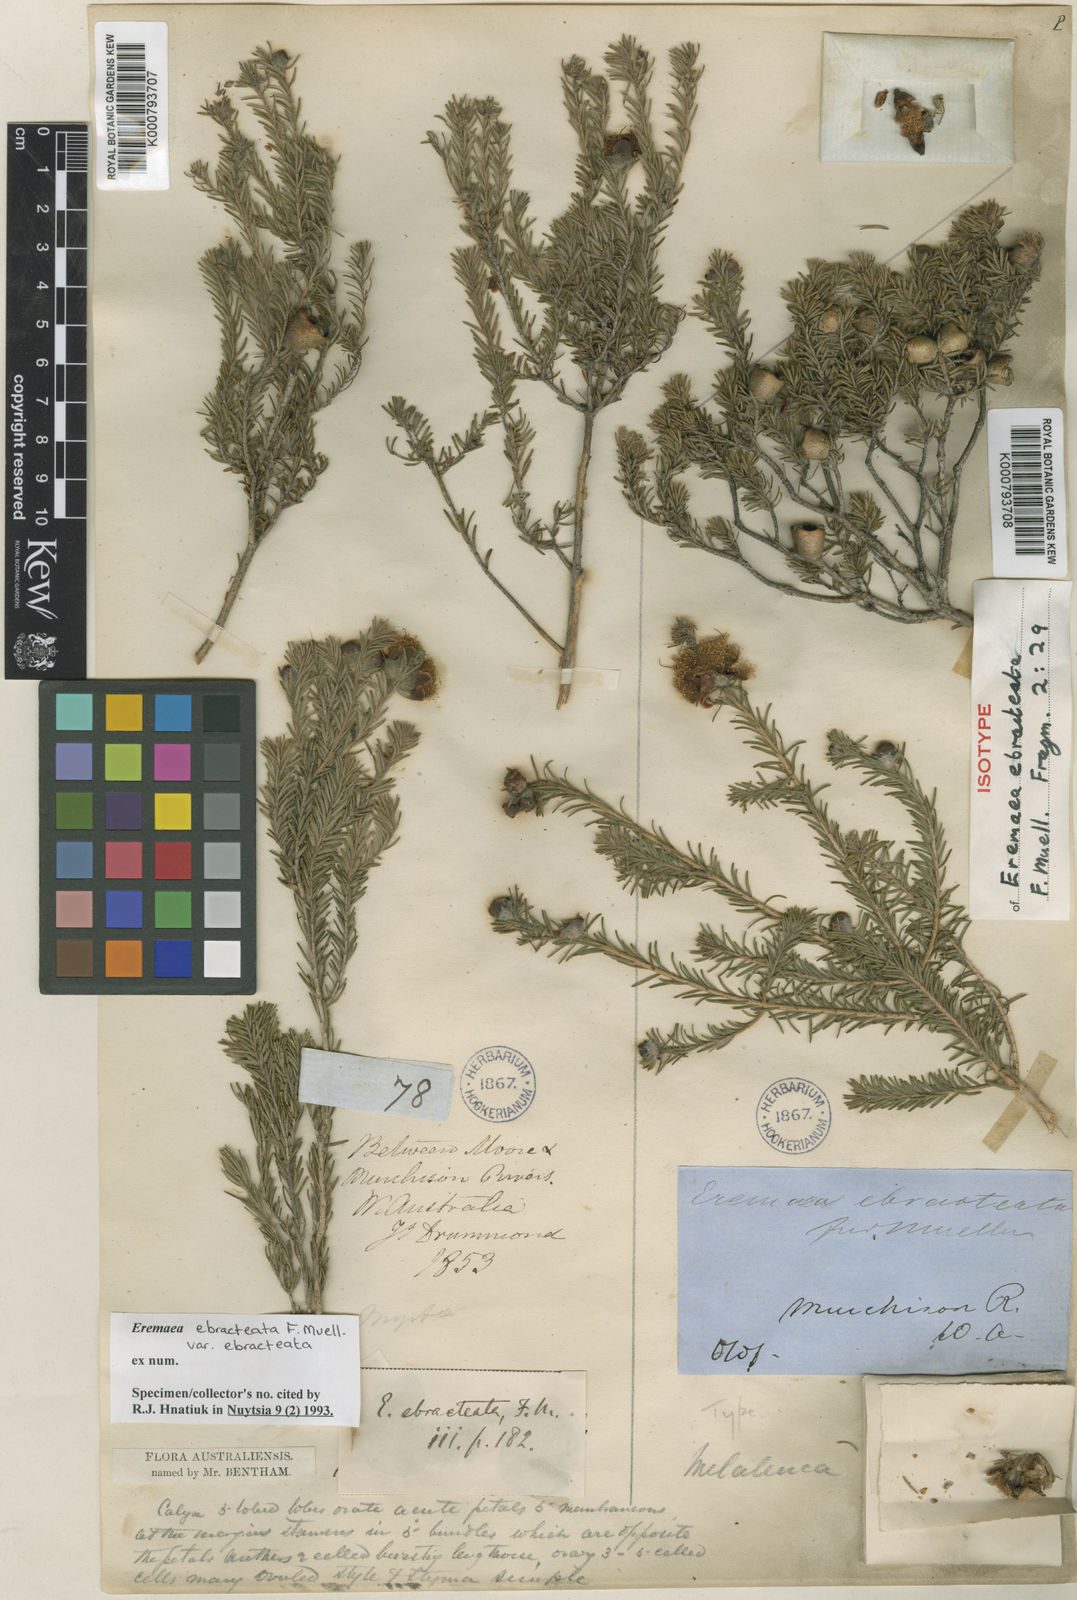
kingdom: Plantae
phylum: Tracheophyta
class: Magnoliopsida
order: Myrtales
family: Myrtaceae
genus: Melaleuca
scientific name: Melaleuca ebracteata
